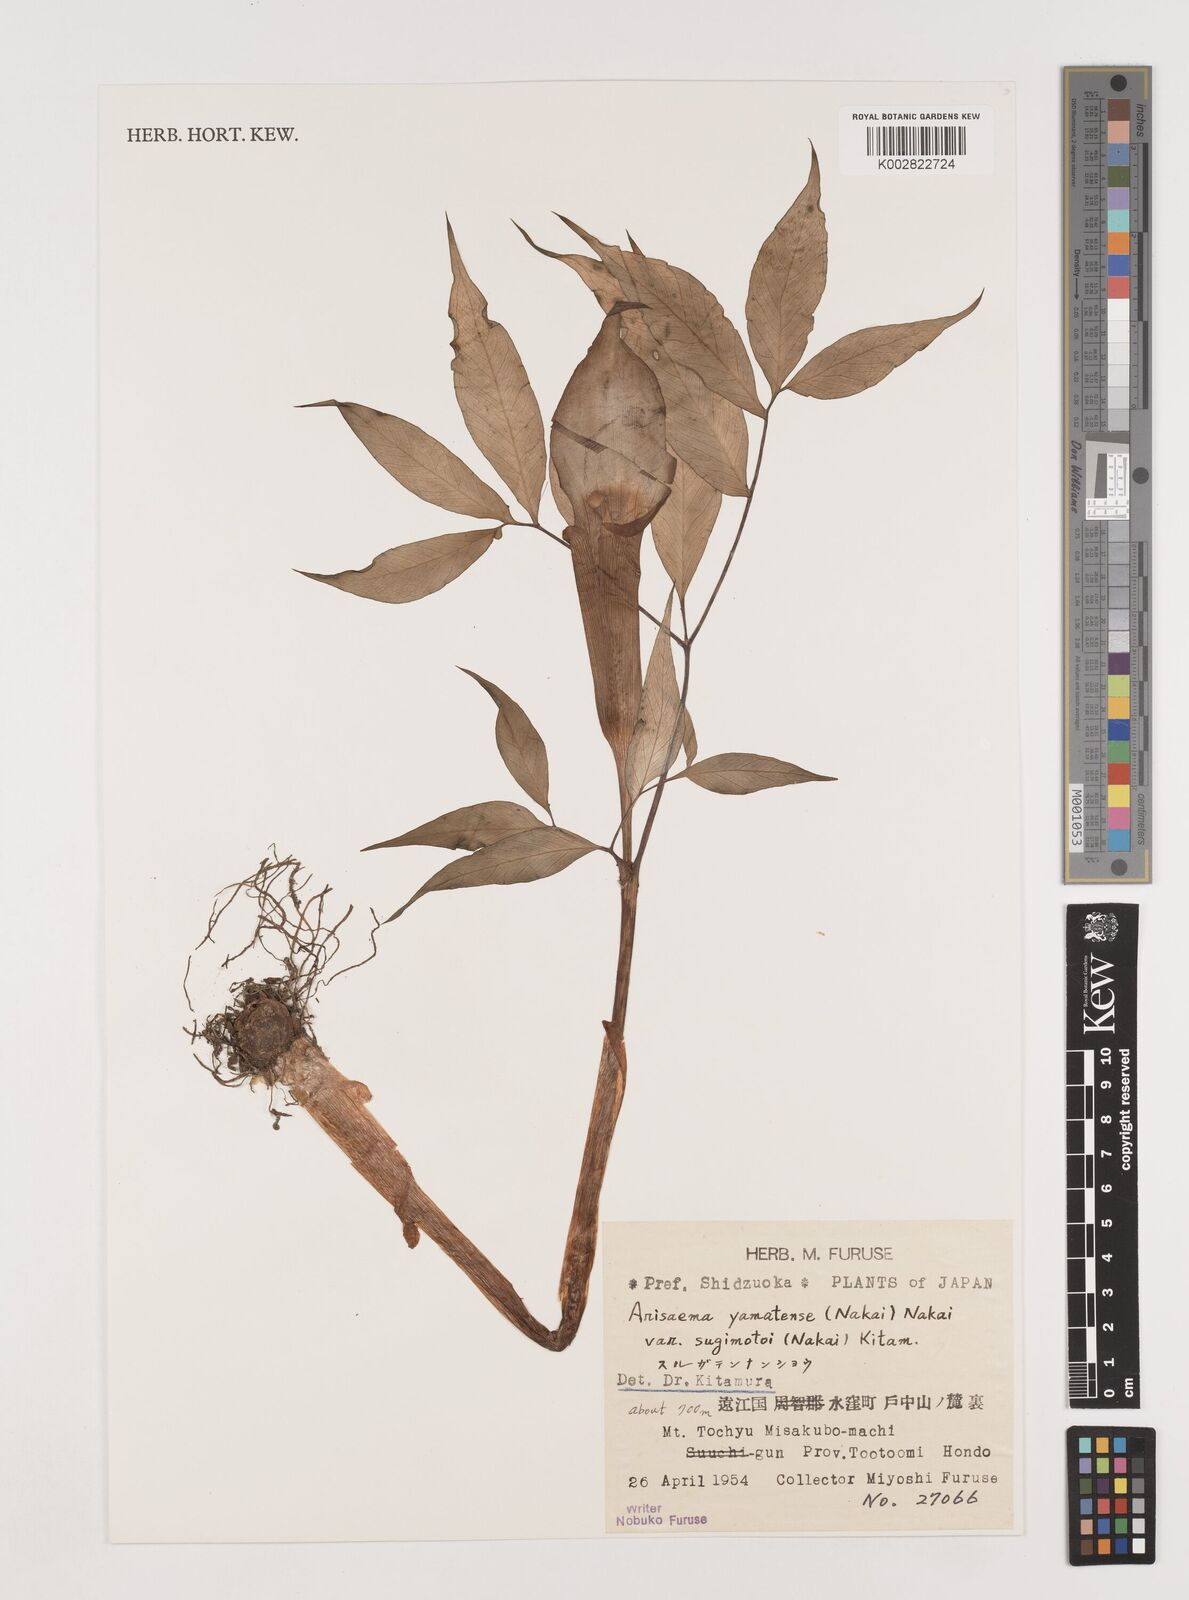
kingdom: Plantae
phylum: Tracheophyta
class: Liliopsida
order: Alismatales
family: Araceae
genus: Arisaema
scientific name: Arisaema yamatense
